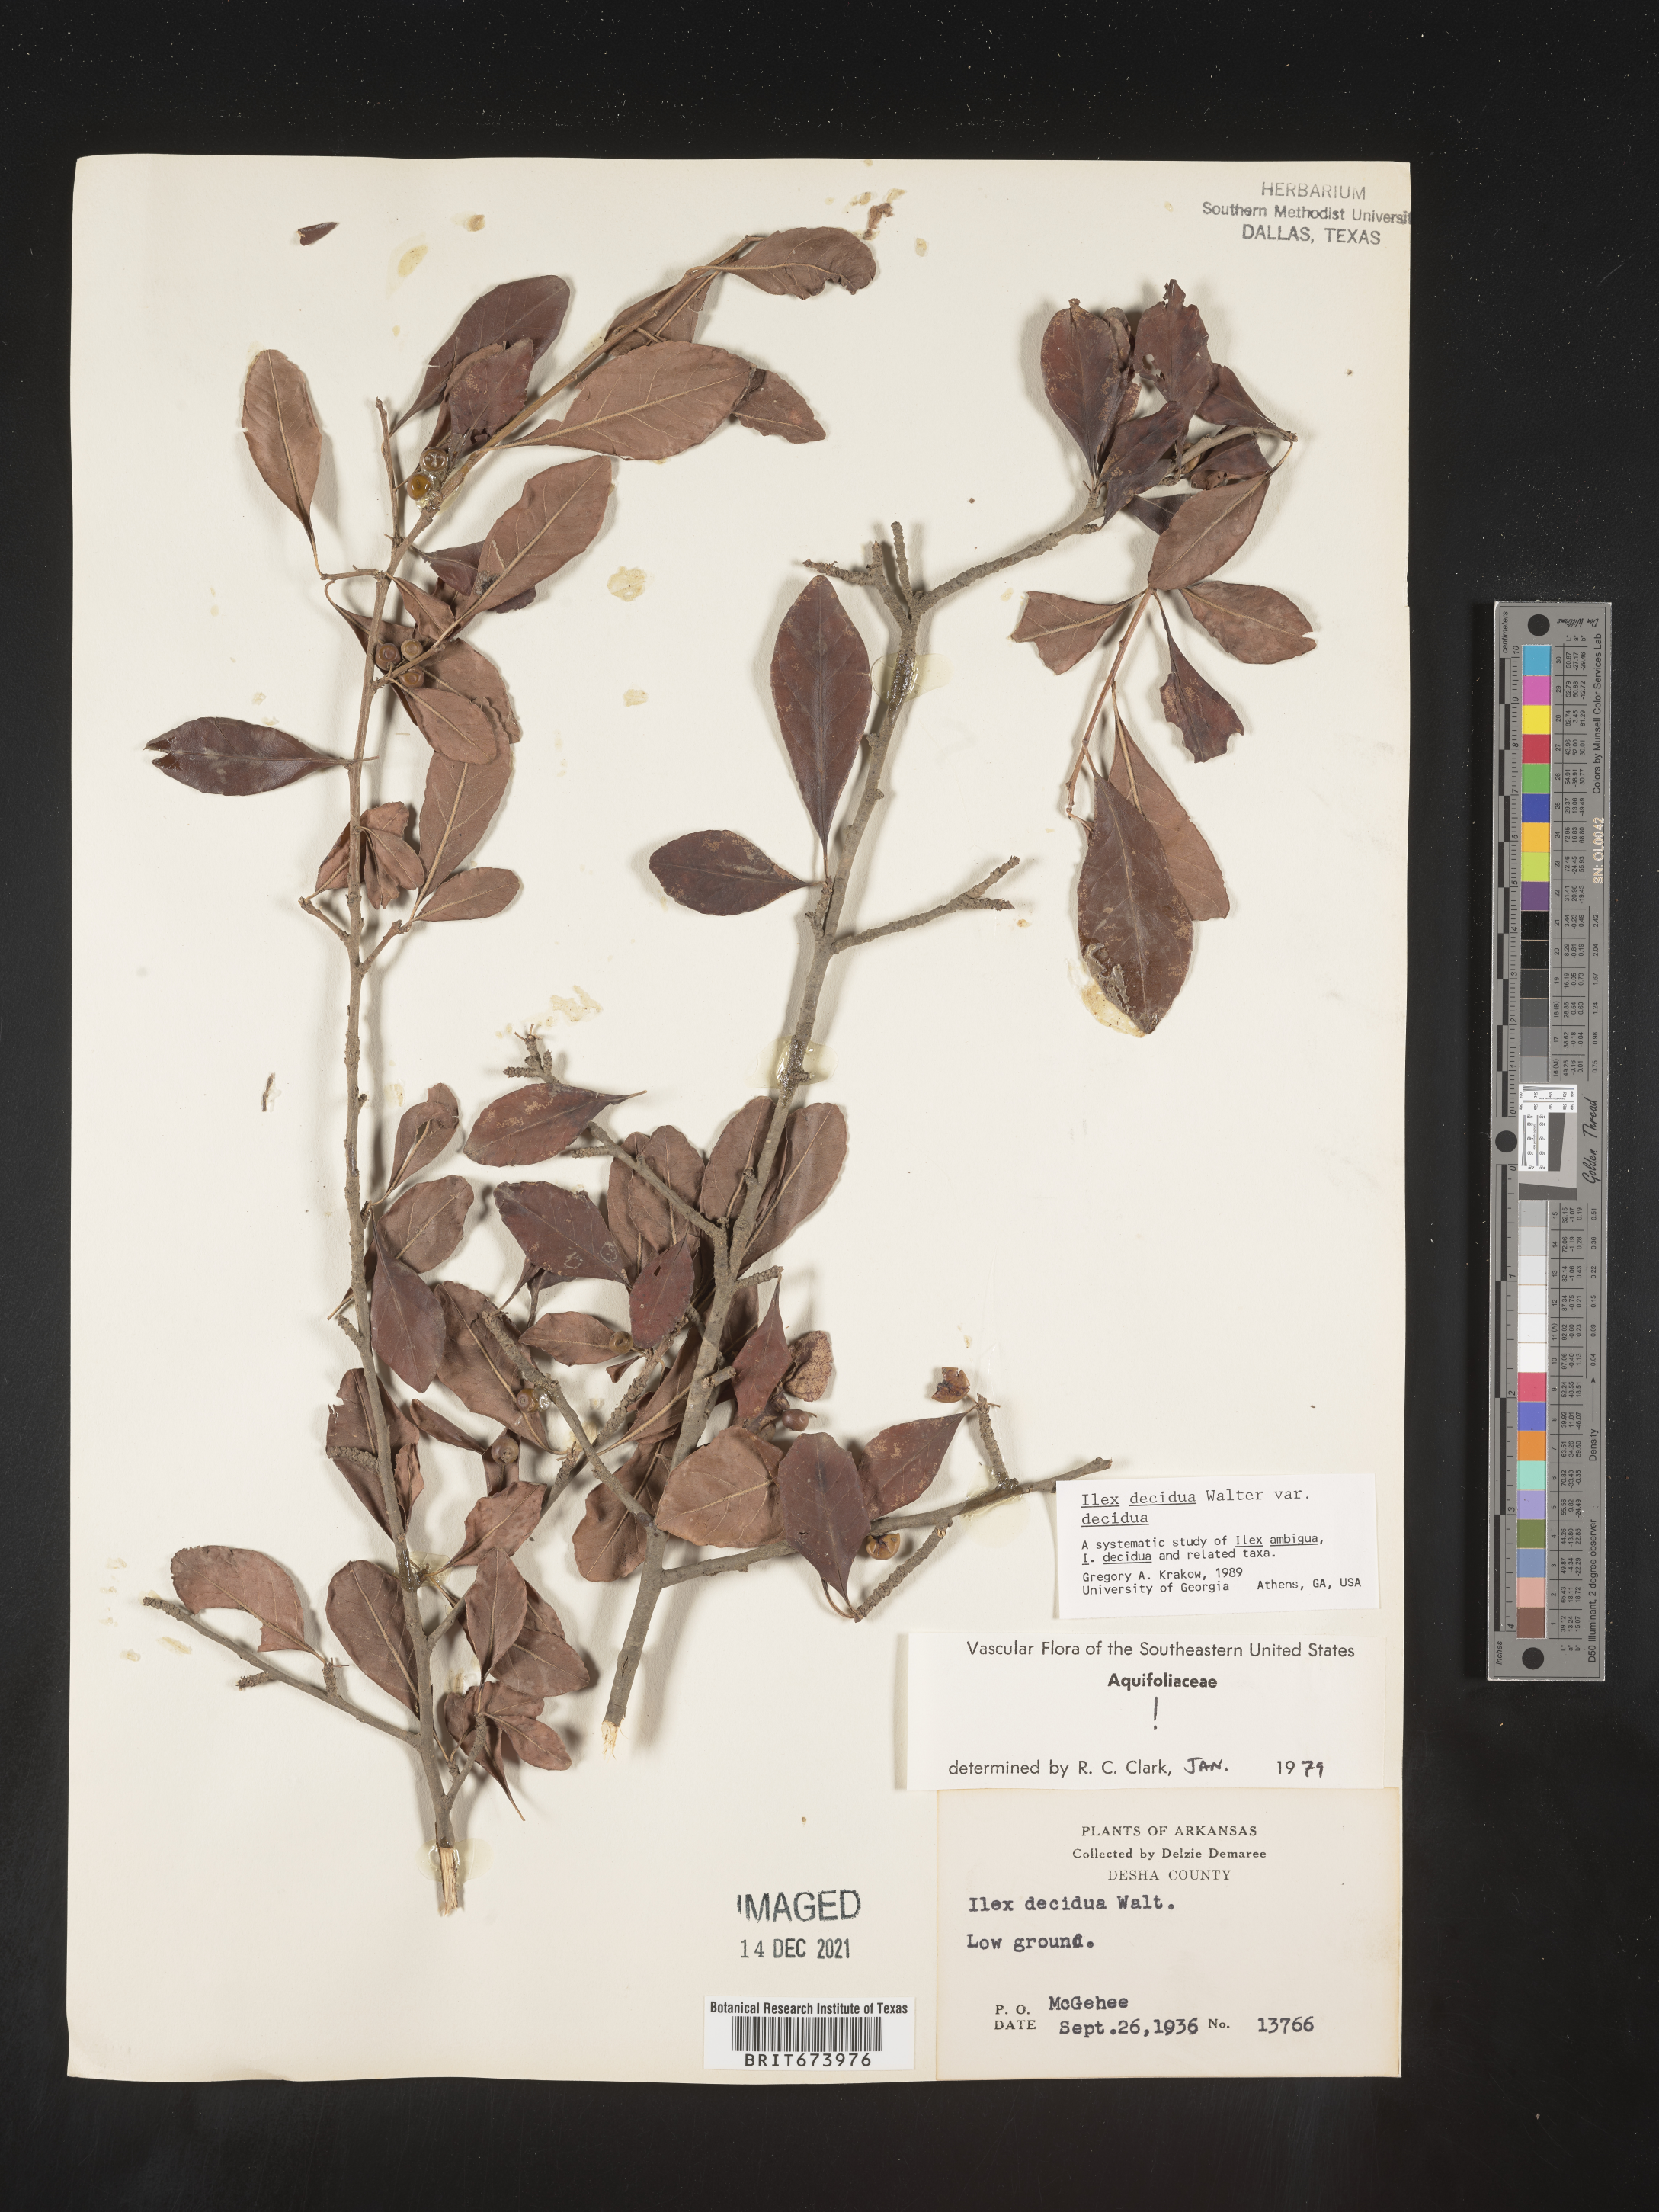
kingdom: Plantae
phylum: Tracheophyta
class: Magnoliopsida
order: Aquifoliales
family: Aquifoliaceae
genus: Ilex
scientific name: Ilex decidua
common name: Possum-haw
